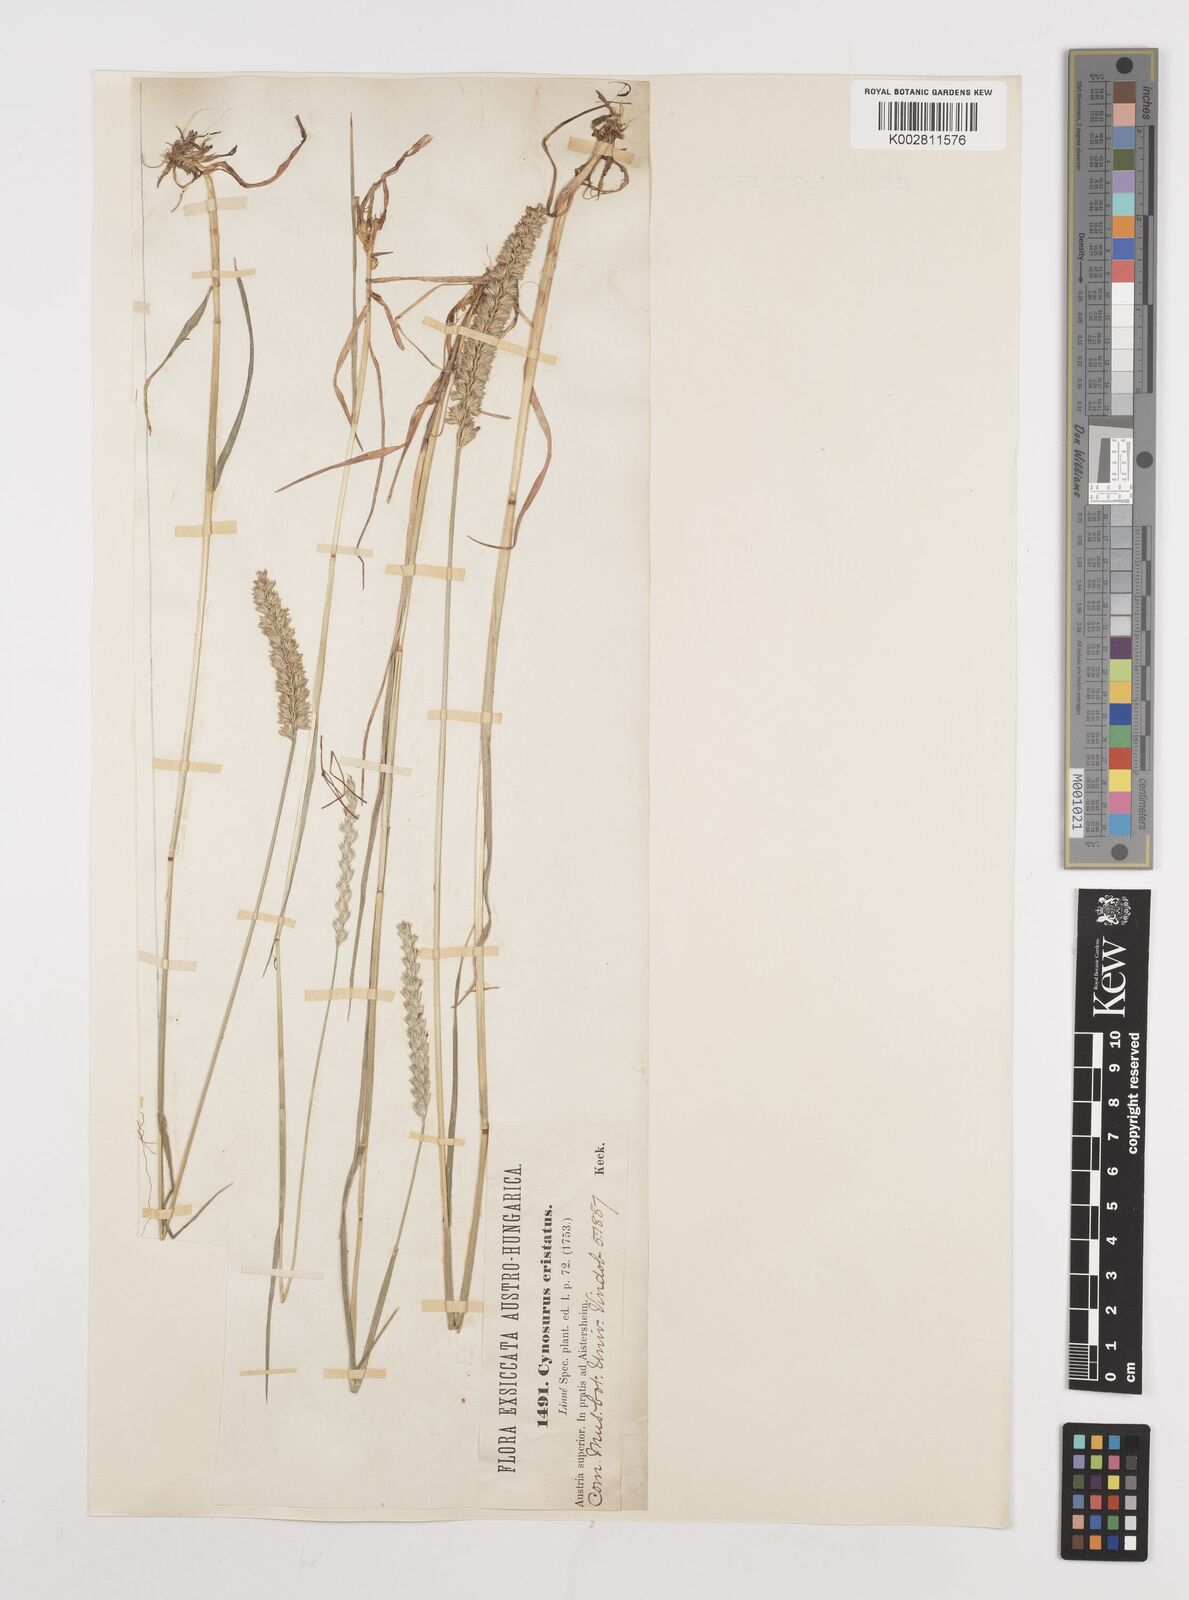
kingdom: Plantae
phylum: Tracheophyta
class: Liliopsida
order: Poales
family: Poaceae
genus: Cynosurus
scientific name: Cynosurus cristatus
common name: Crested dog's-tail
